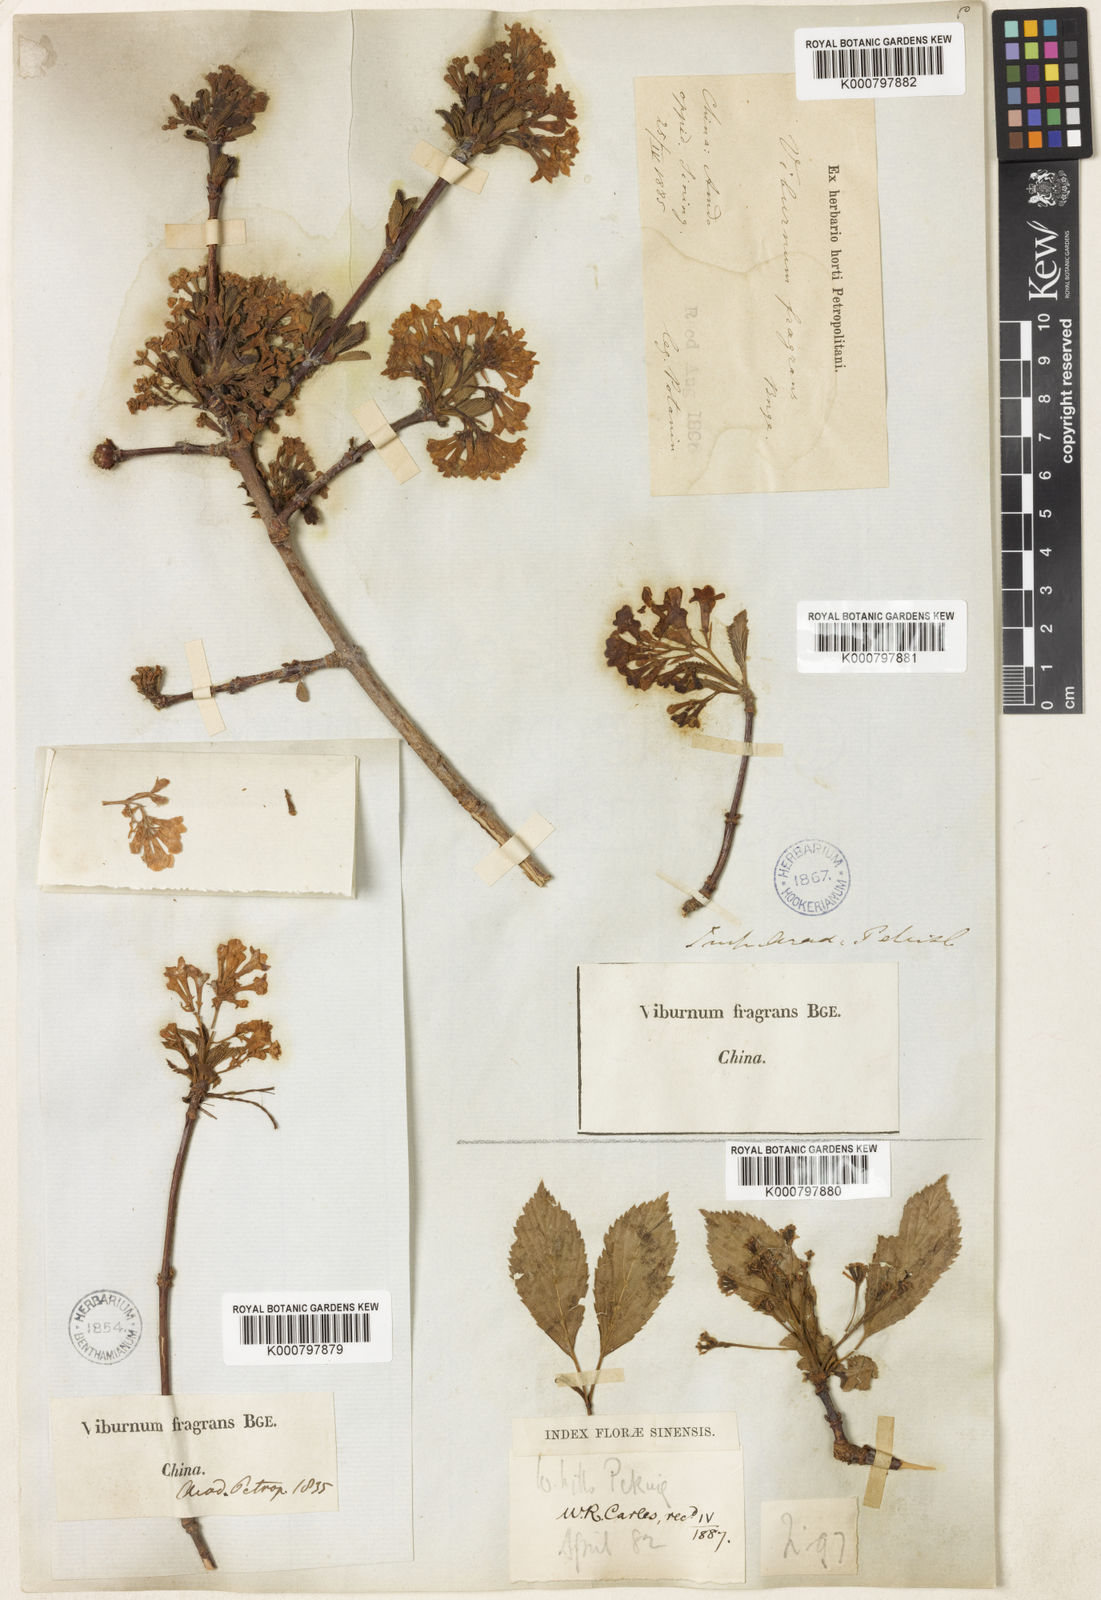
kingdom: Plantae
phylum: Tracheophyta
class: Magnoliopsida
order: Dipsacales
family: Viburnaceae
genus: Viburnum
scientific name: Viburnum farreri
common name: Farrer's viburnum
